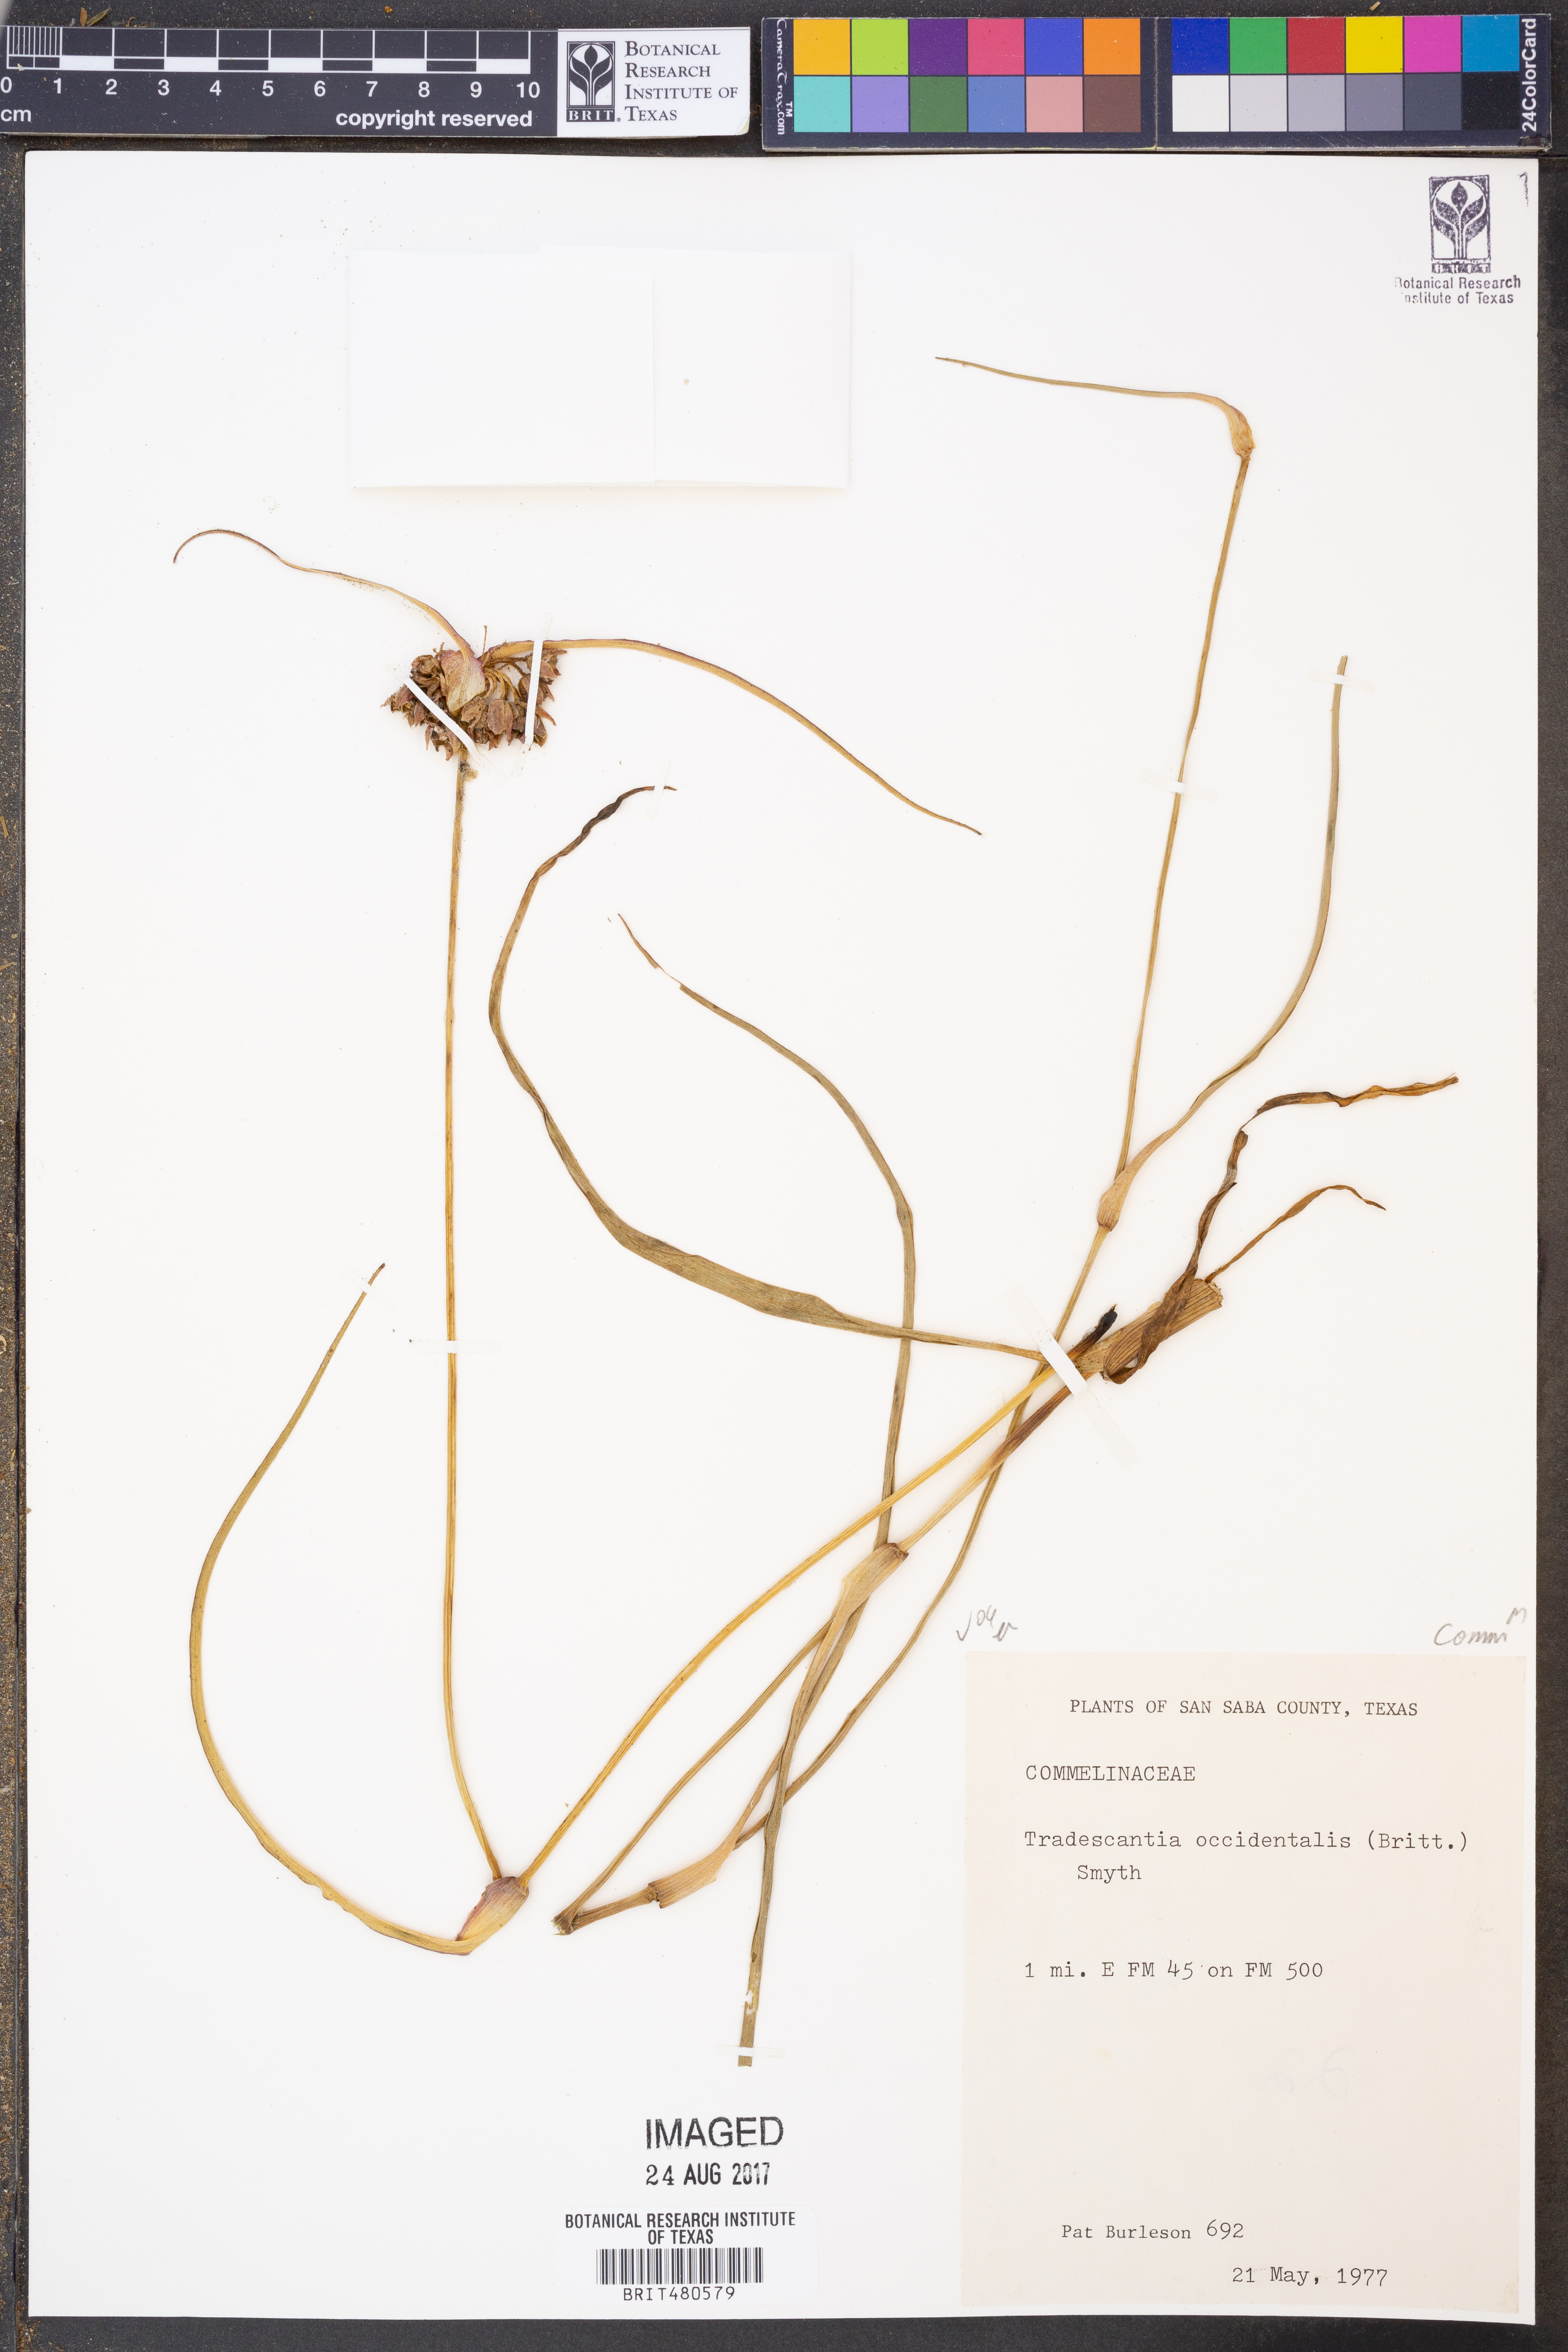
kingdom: Plantae
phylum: Tracheophyta
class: Liliopsida
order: Commelinales
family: Commelinaceae
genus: Tradescantia
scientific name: Tradescantia occidentalis
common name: Prairie spiderwort
